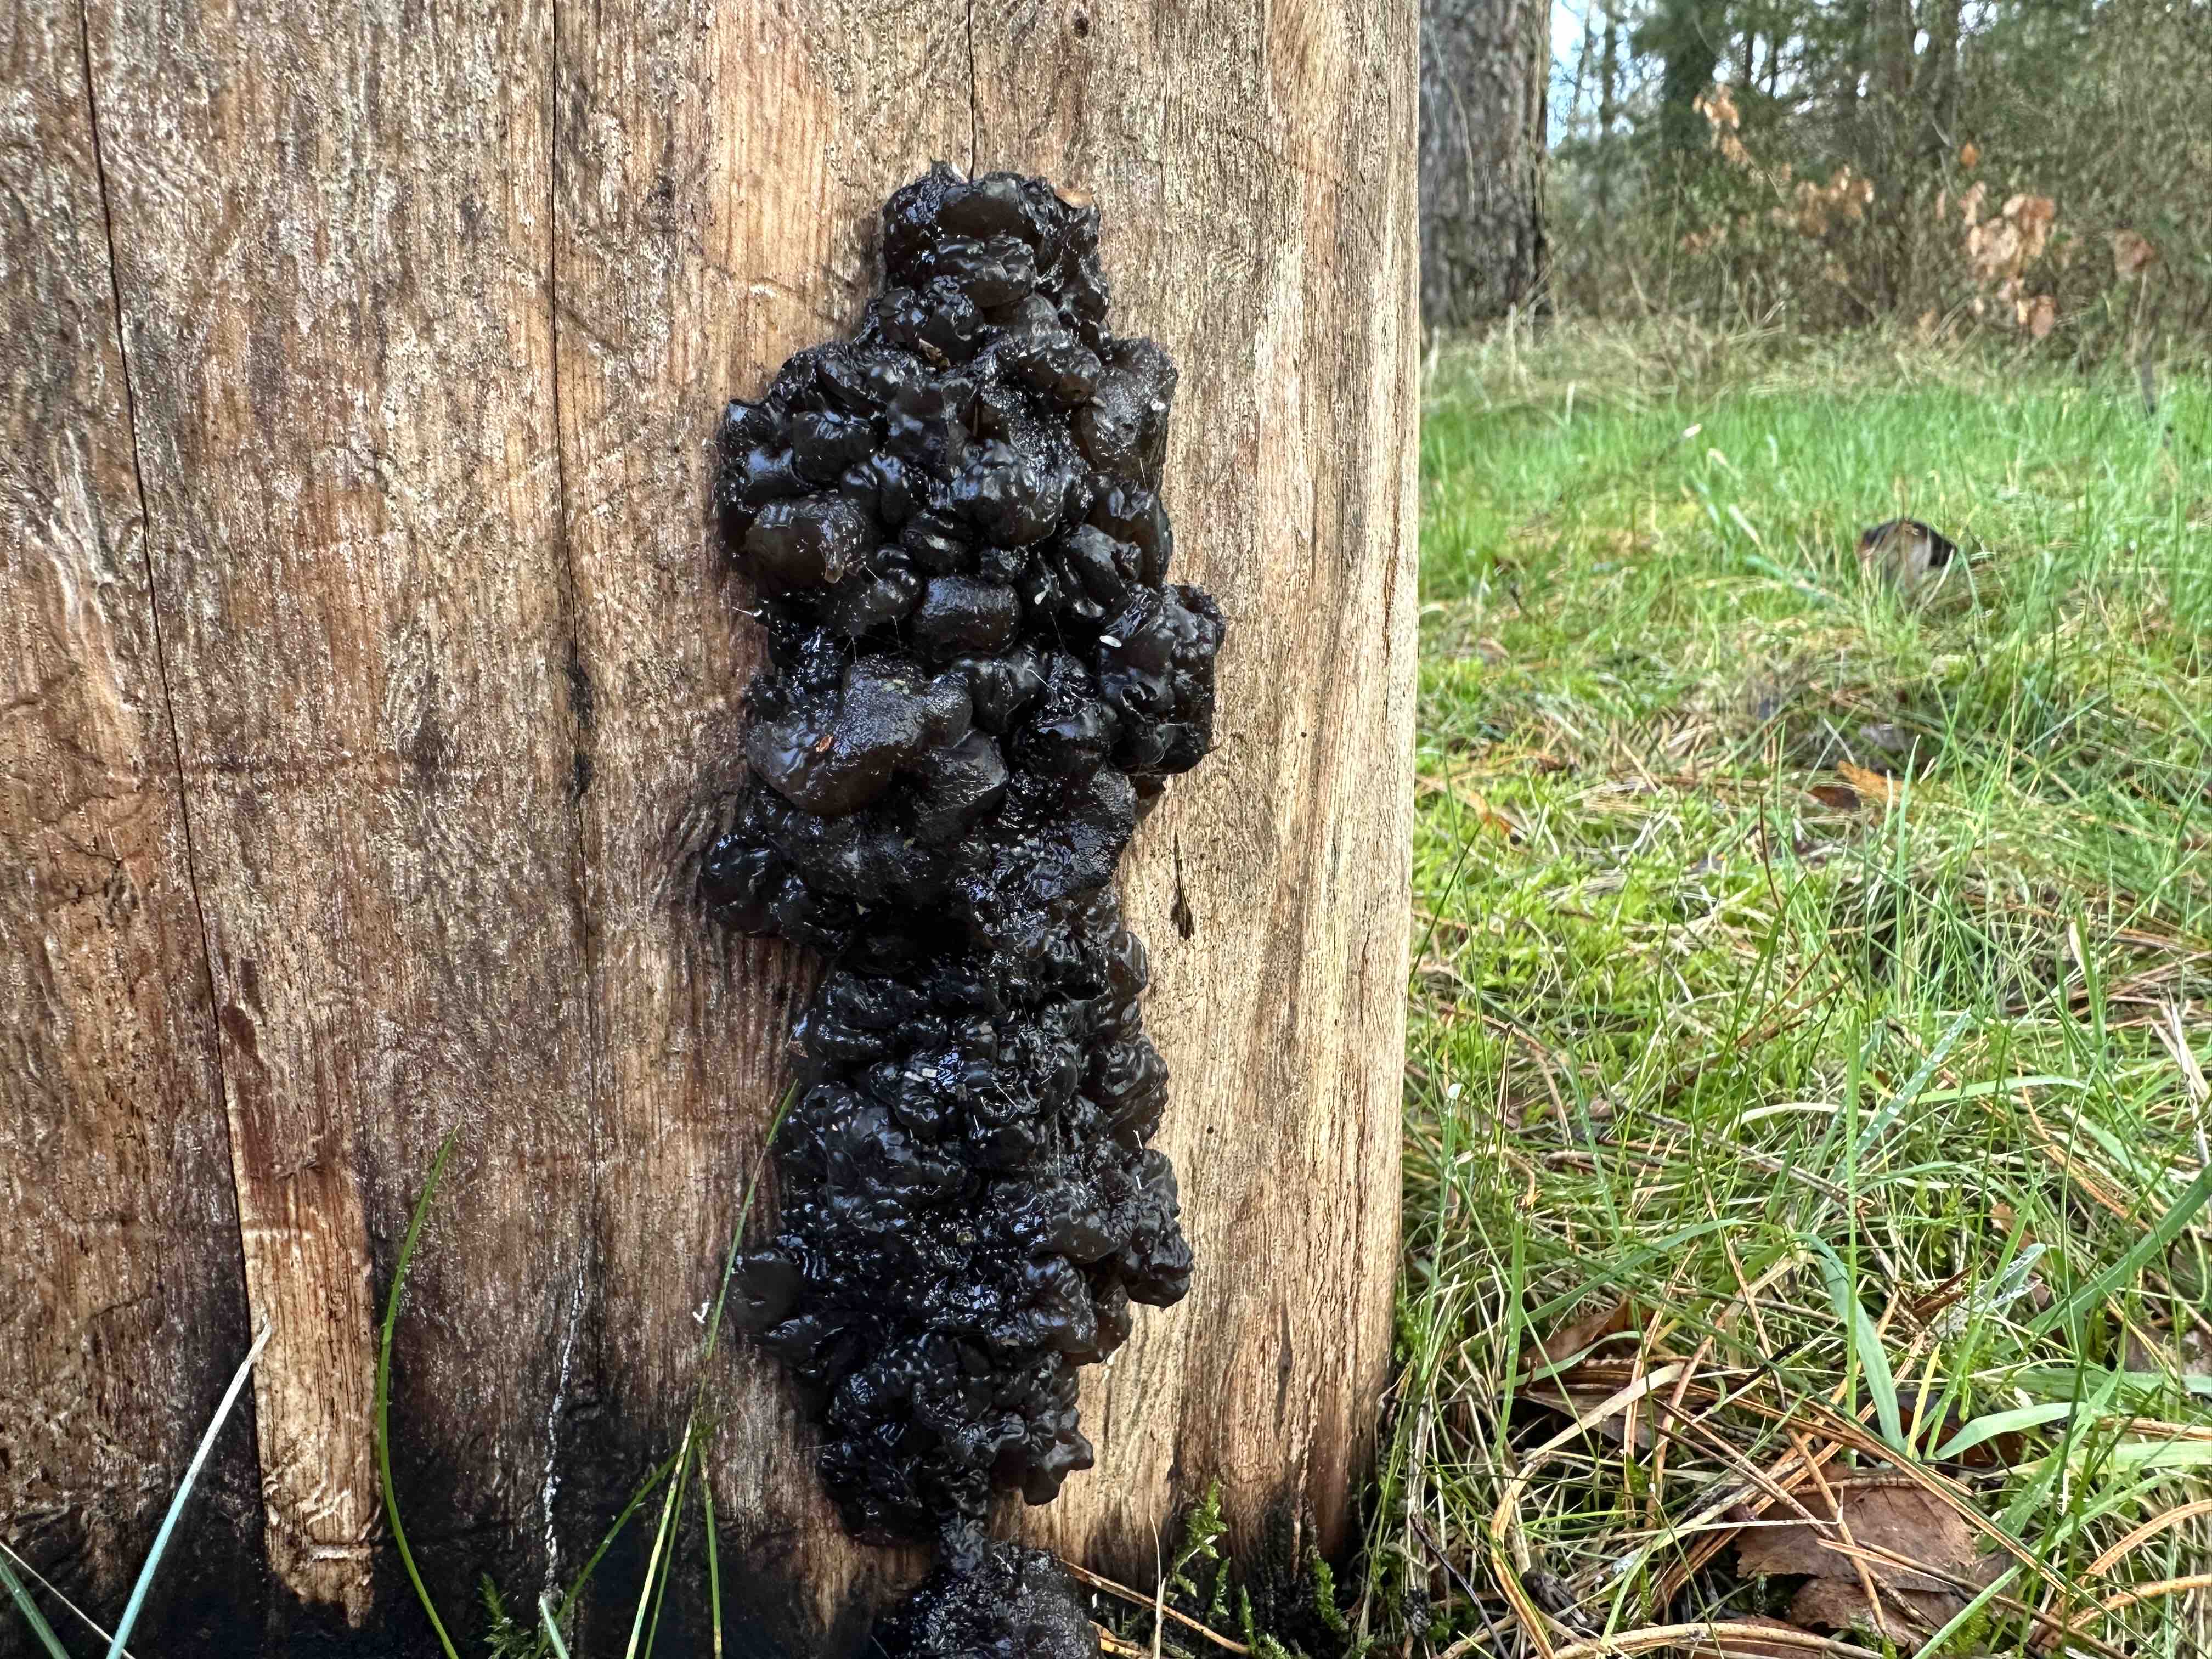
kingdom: Fungi
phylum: Basidiomycota
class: Agaricomycetes
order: Auriculariales
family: Auriculariaceae
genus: Exidia
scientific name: Exidia nigricans
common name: almindelig bævretop
